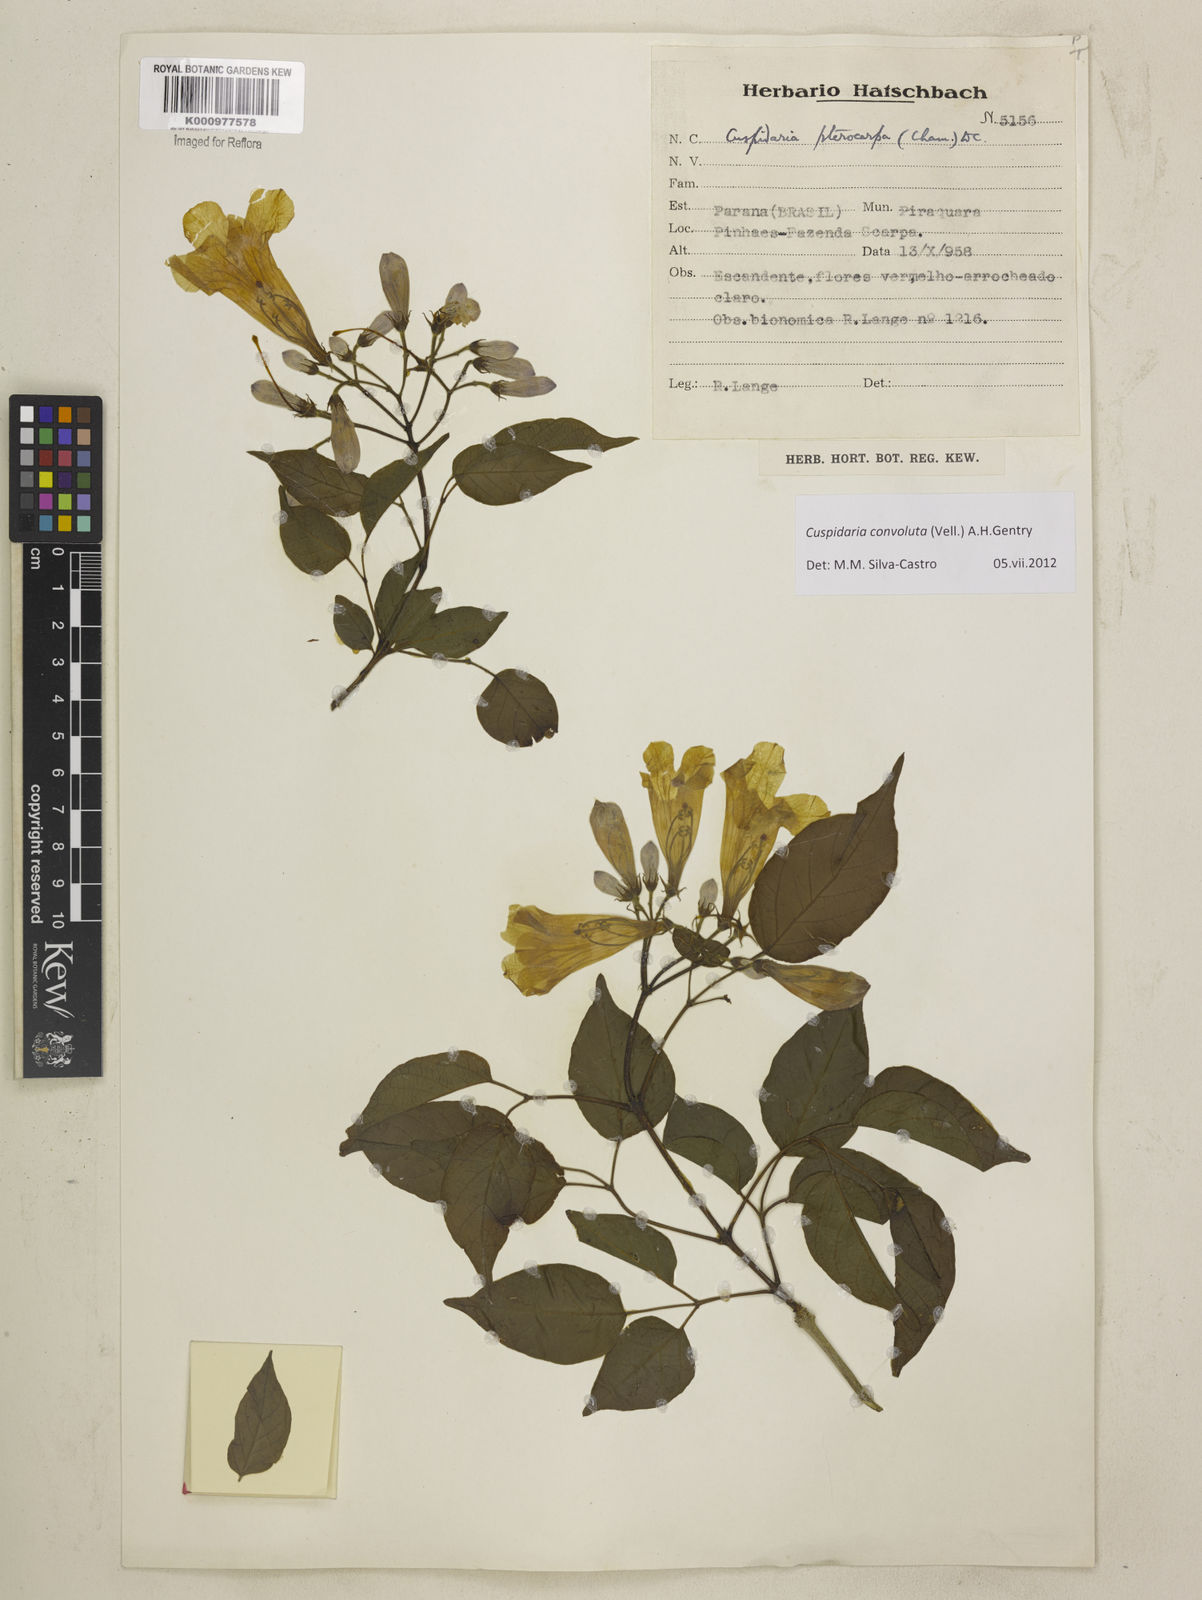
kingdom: Plantae
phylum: Tracheophyta
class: Magnoliopsida
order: Lamiales
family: Bignoniaceae
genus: Cuspidaria
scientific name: Cuspidaria convoluta
